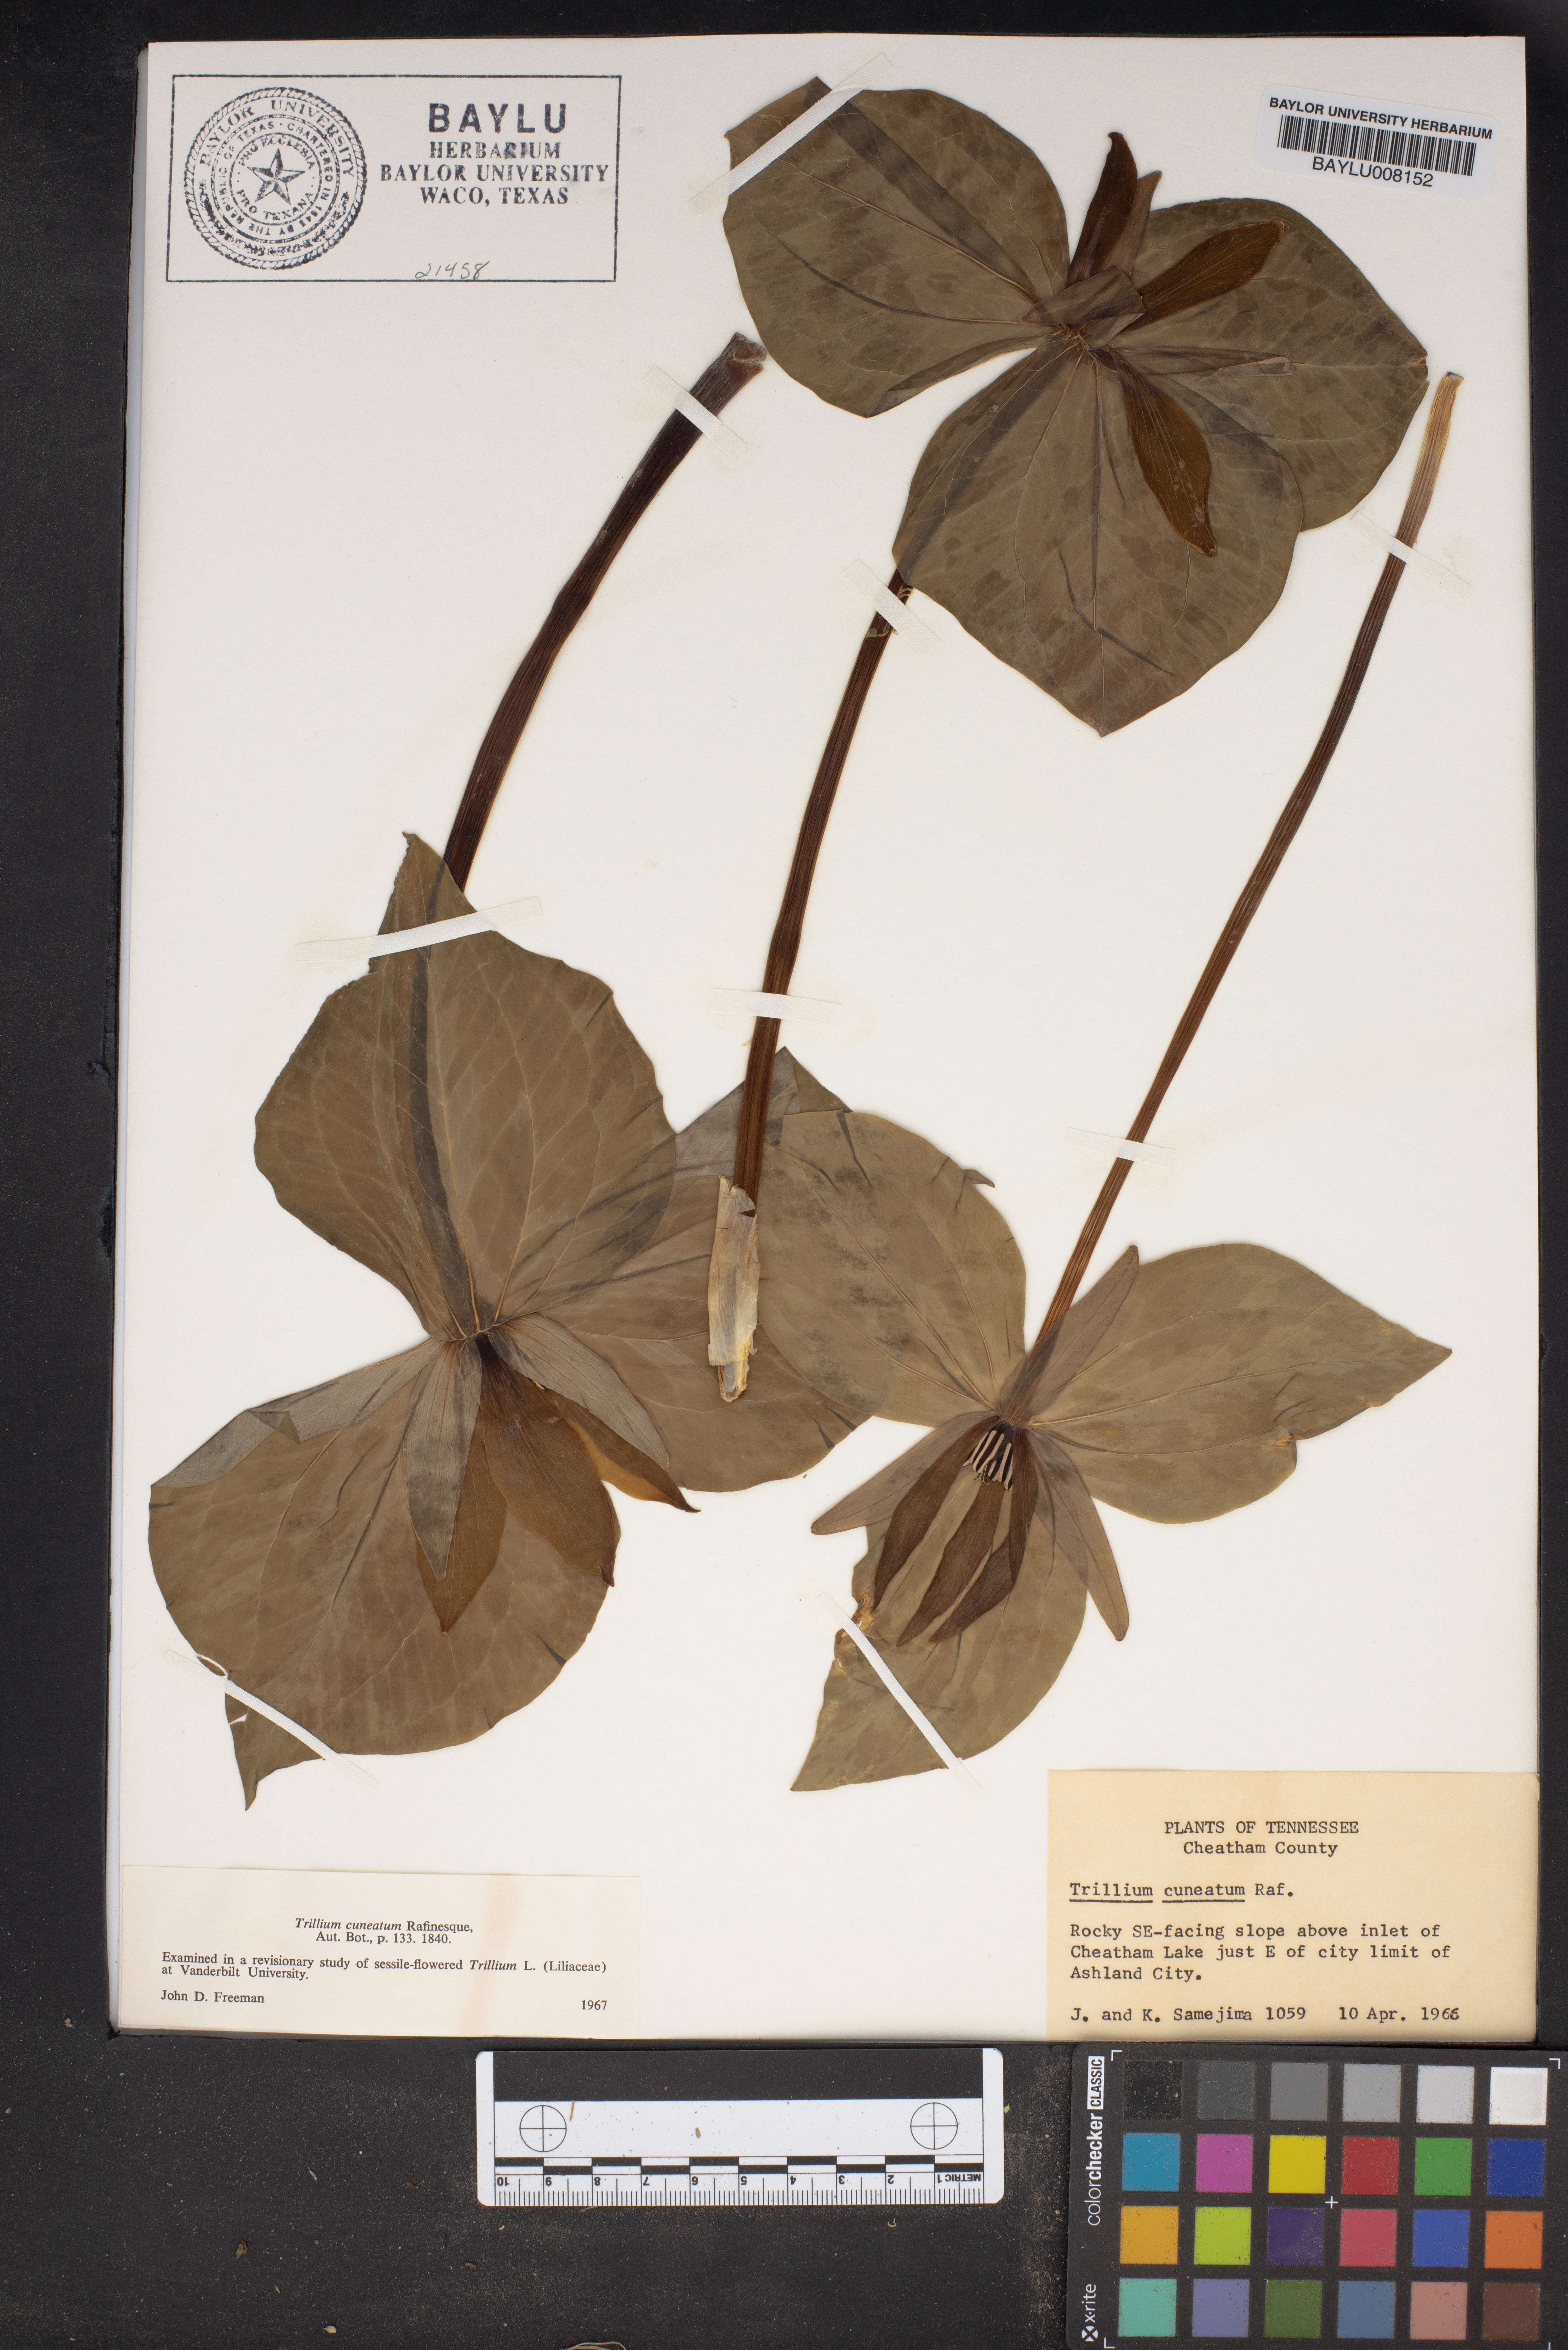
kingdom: Plantae
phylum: Tracheophyta
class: Liliopsida
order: Liliales
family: Melanthiaceae
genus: Trillium
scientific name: Trillium cuneatum
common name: Cuneate trillium
